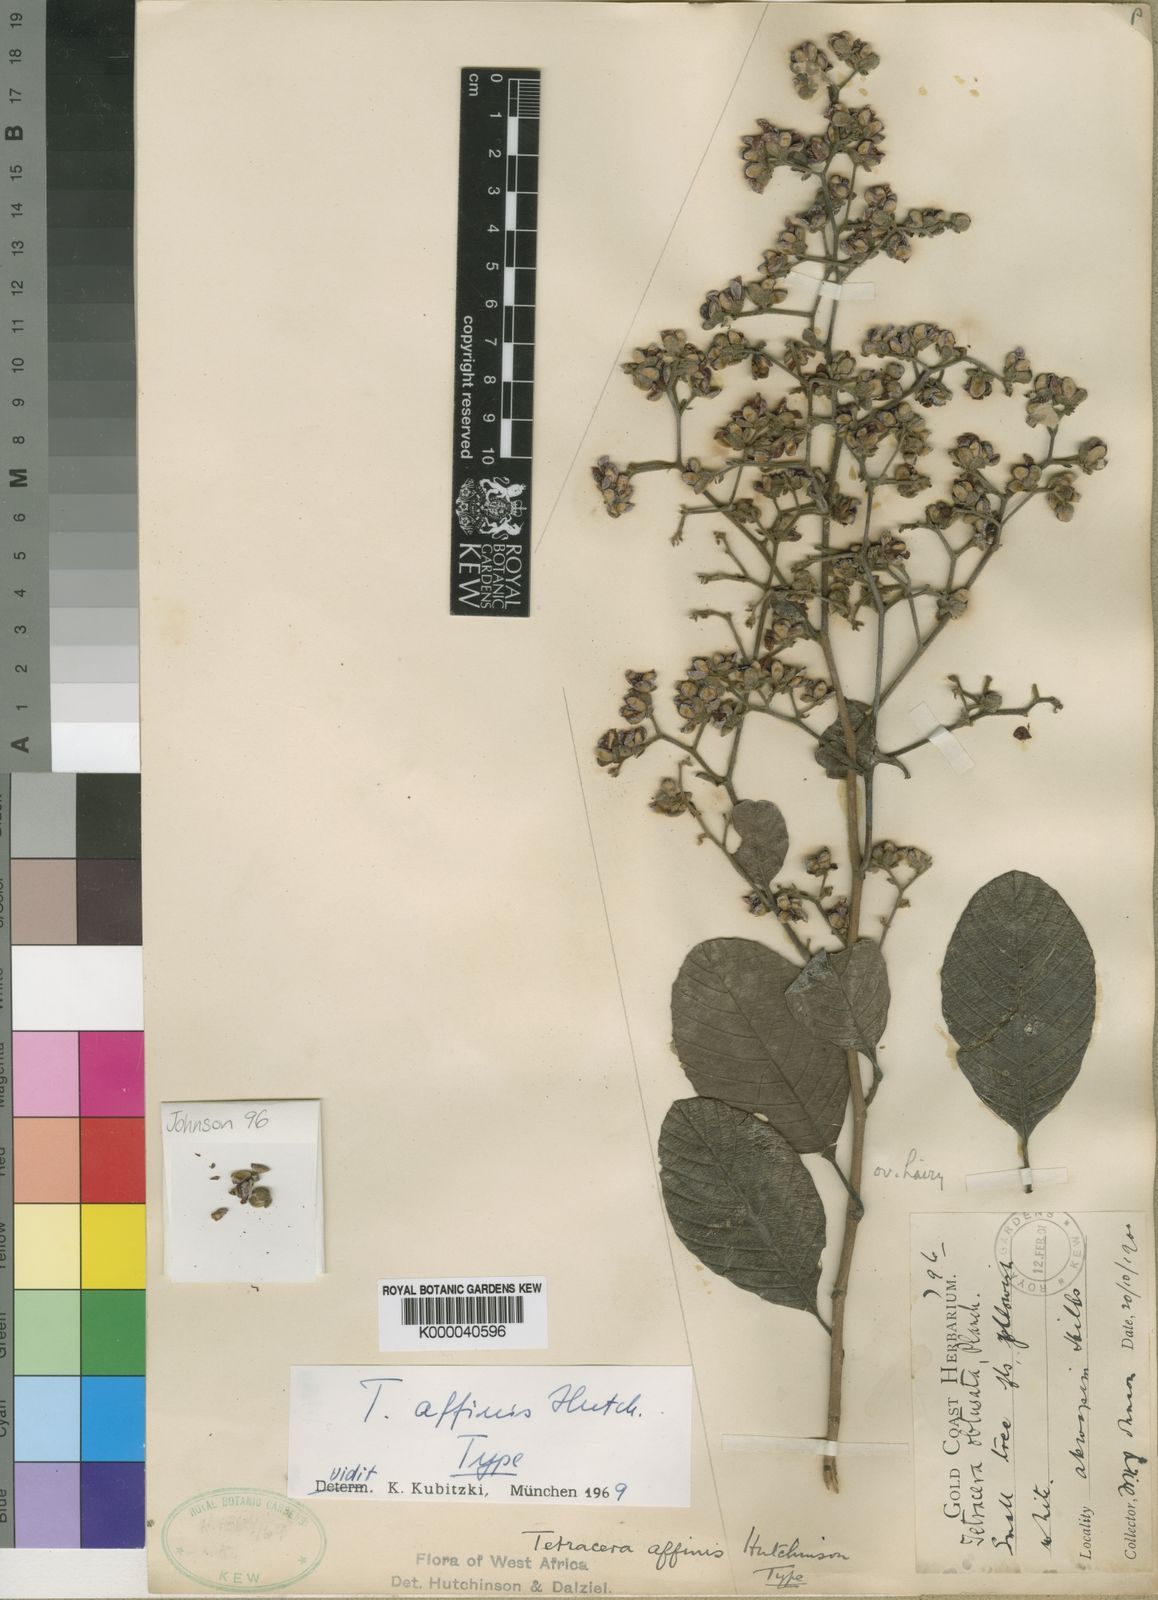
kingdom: Plantae
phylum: Tracheophyta
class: Magnoliopsida
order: Dilleniales
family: Dilleniaceae
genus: Tetracera
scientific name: Tetracera affinis
